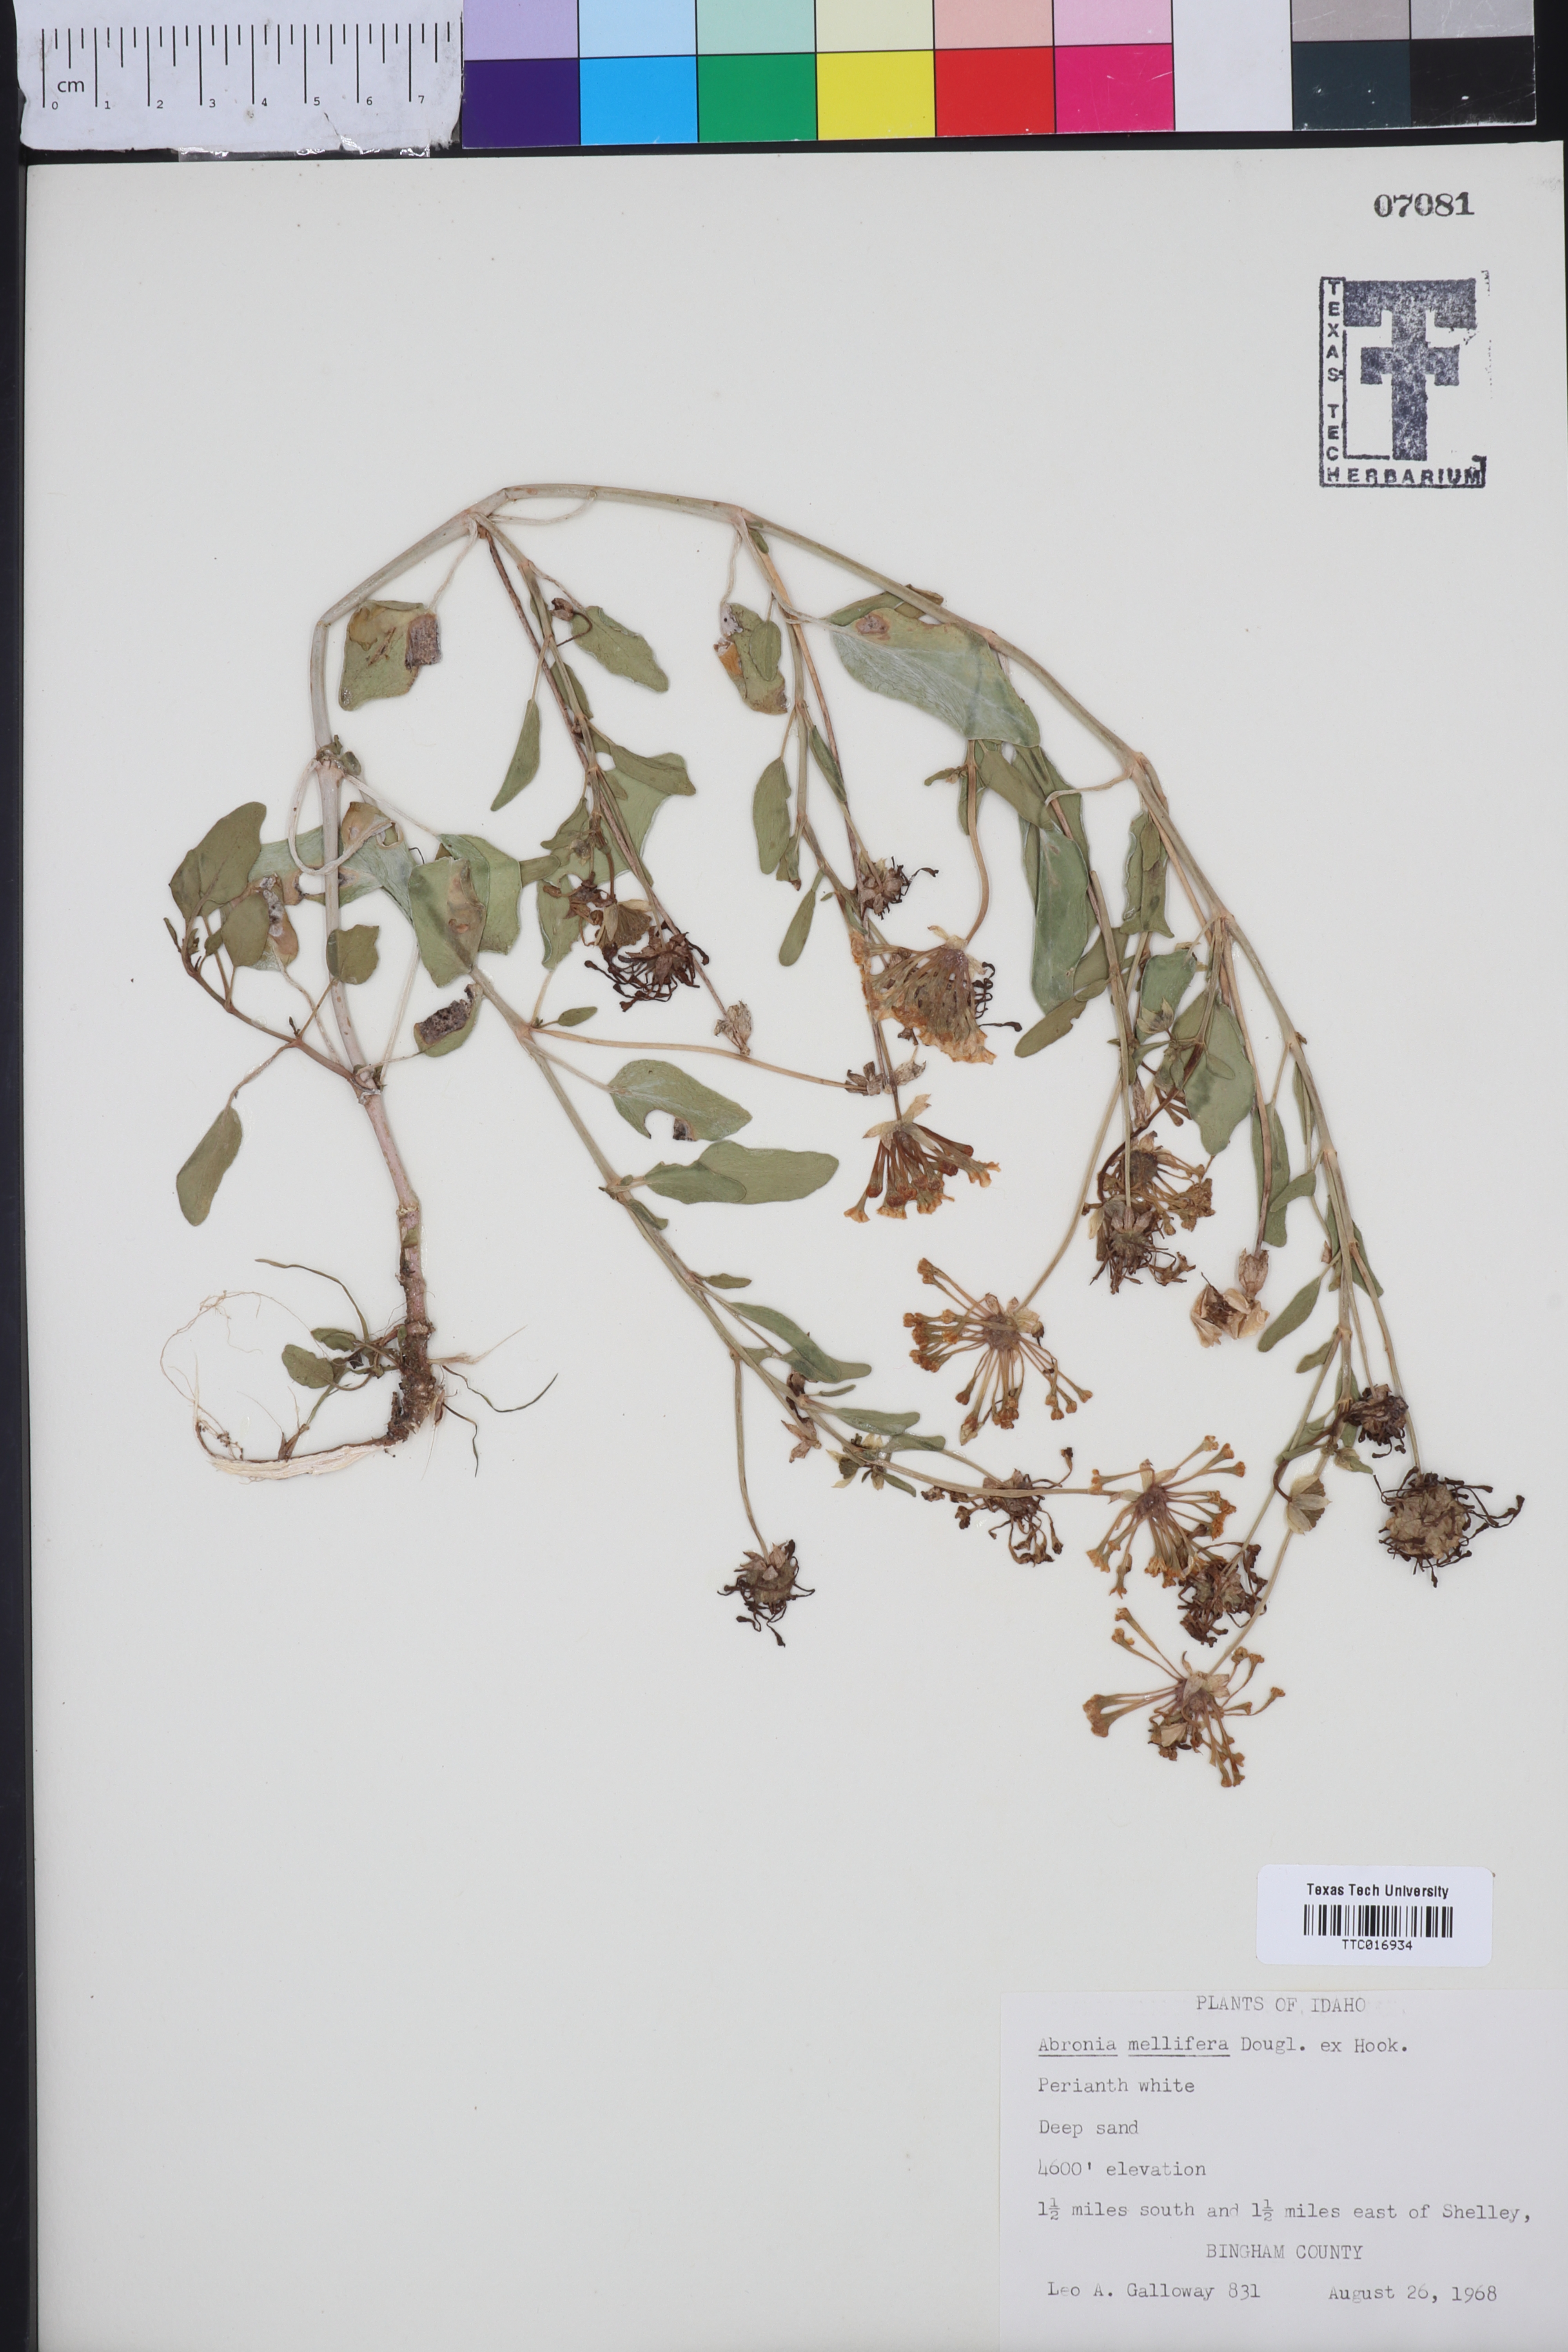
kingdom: Plantae
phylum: Tracheophyta
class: Magnoliopsida
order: Caryophyllales
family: Nyctaginaceae
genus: Abronia
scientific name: Abronia mellifera
